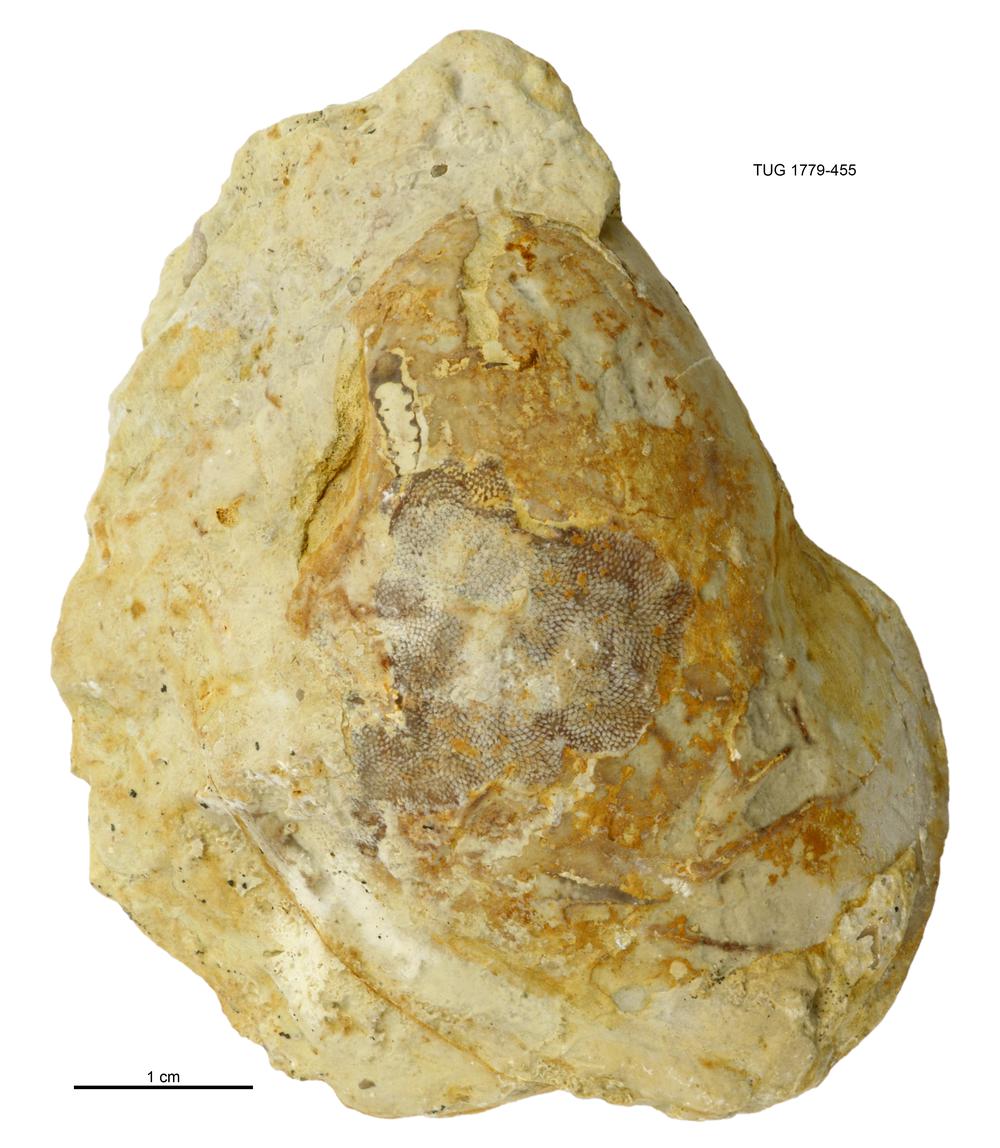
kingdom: Animalia
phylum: Mollusca
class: Bivalvia
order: Modiomorphida
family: Modiomorphidae
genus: Modiolopsis
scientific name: Modiolopsis
